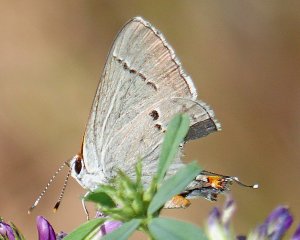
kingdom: Animalia
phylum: Arthropoda
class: Insecta
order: Lepidoptera
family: Lycaenidae
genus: Strymon
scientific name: Strymon melinus
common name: Gray Hairstreak
